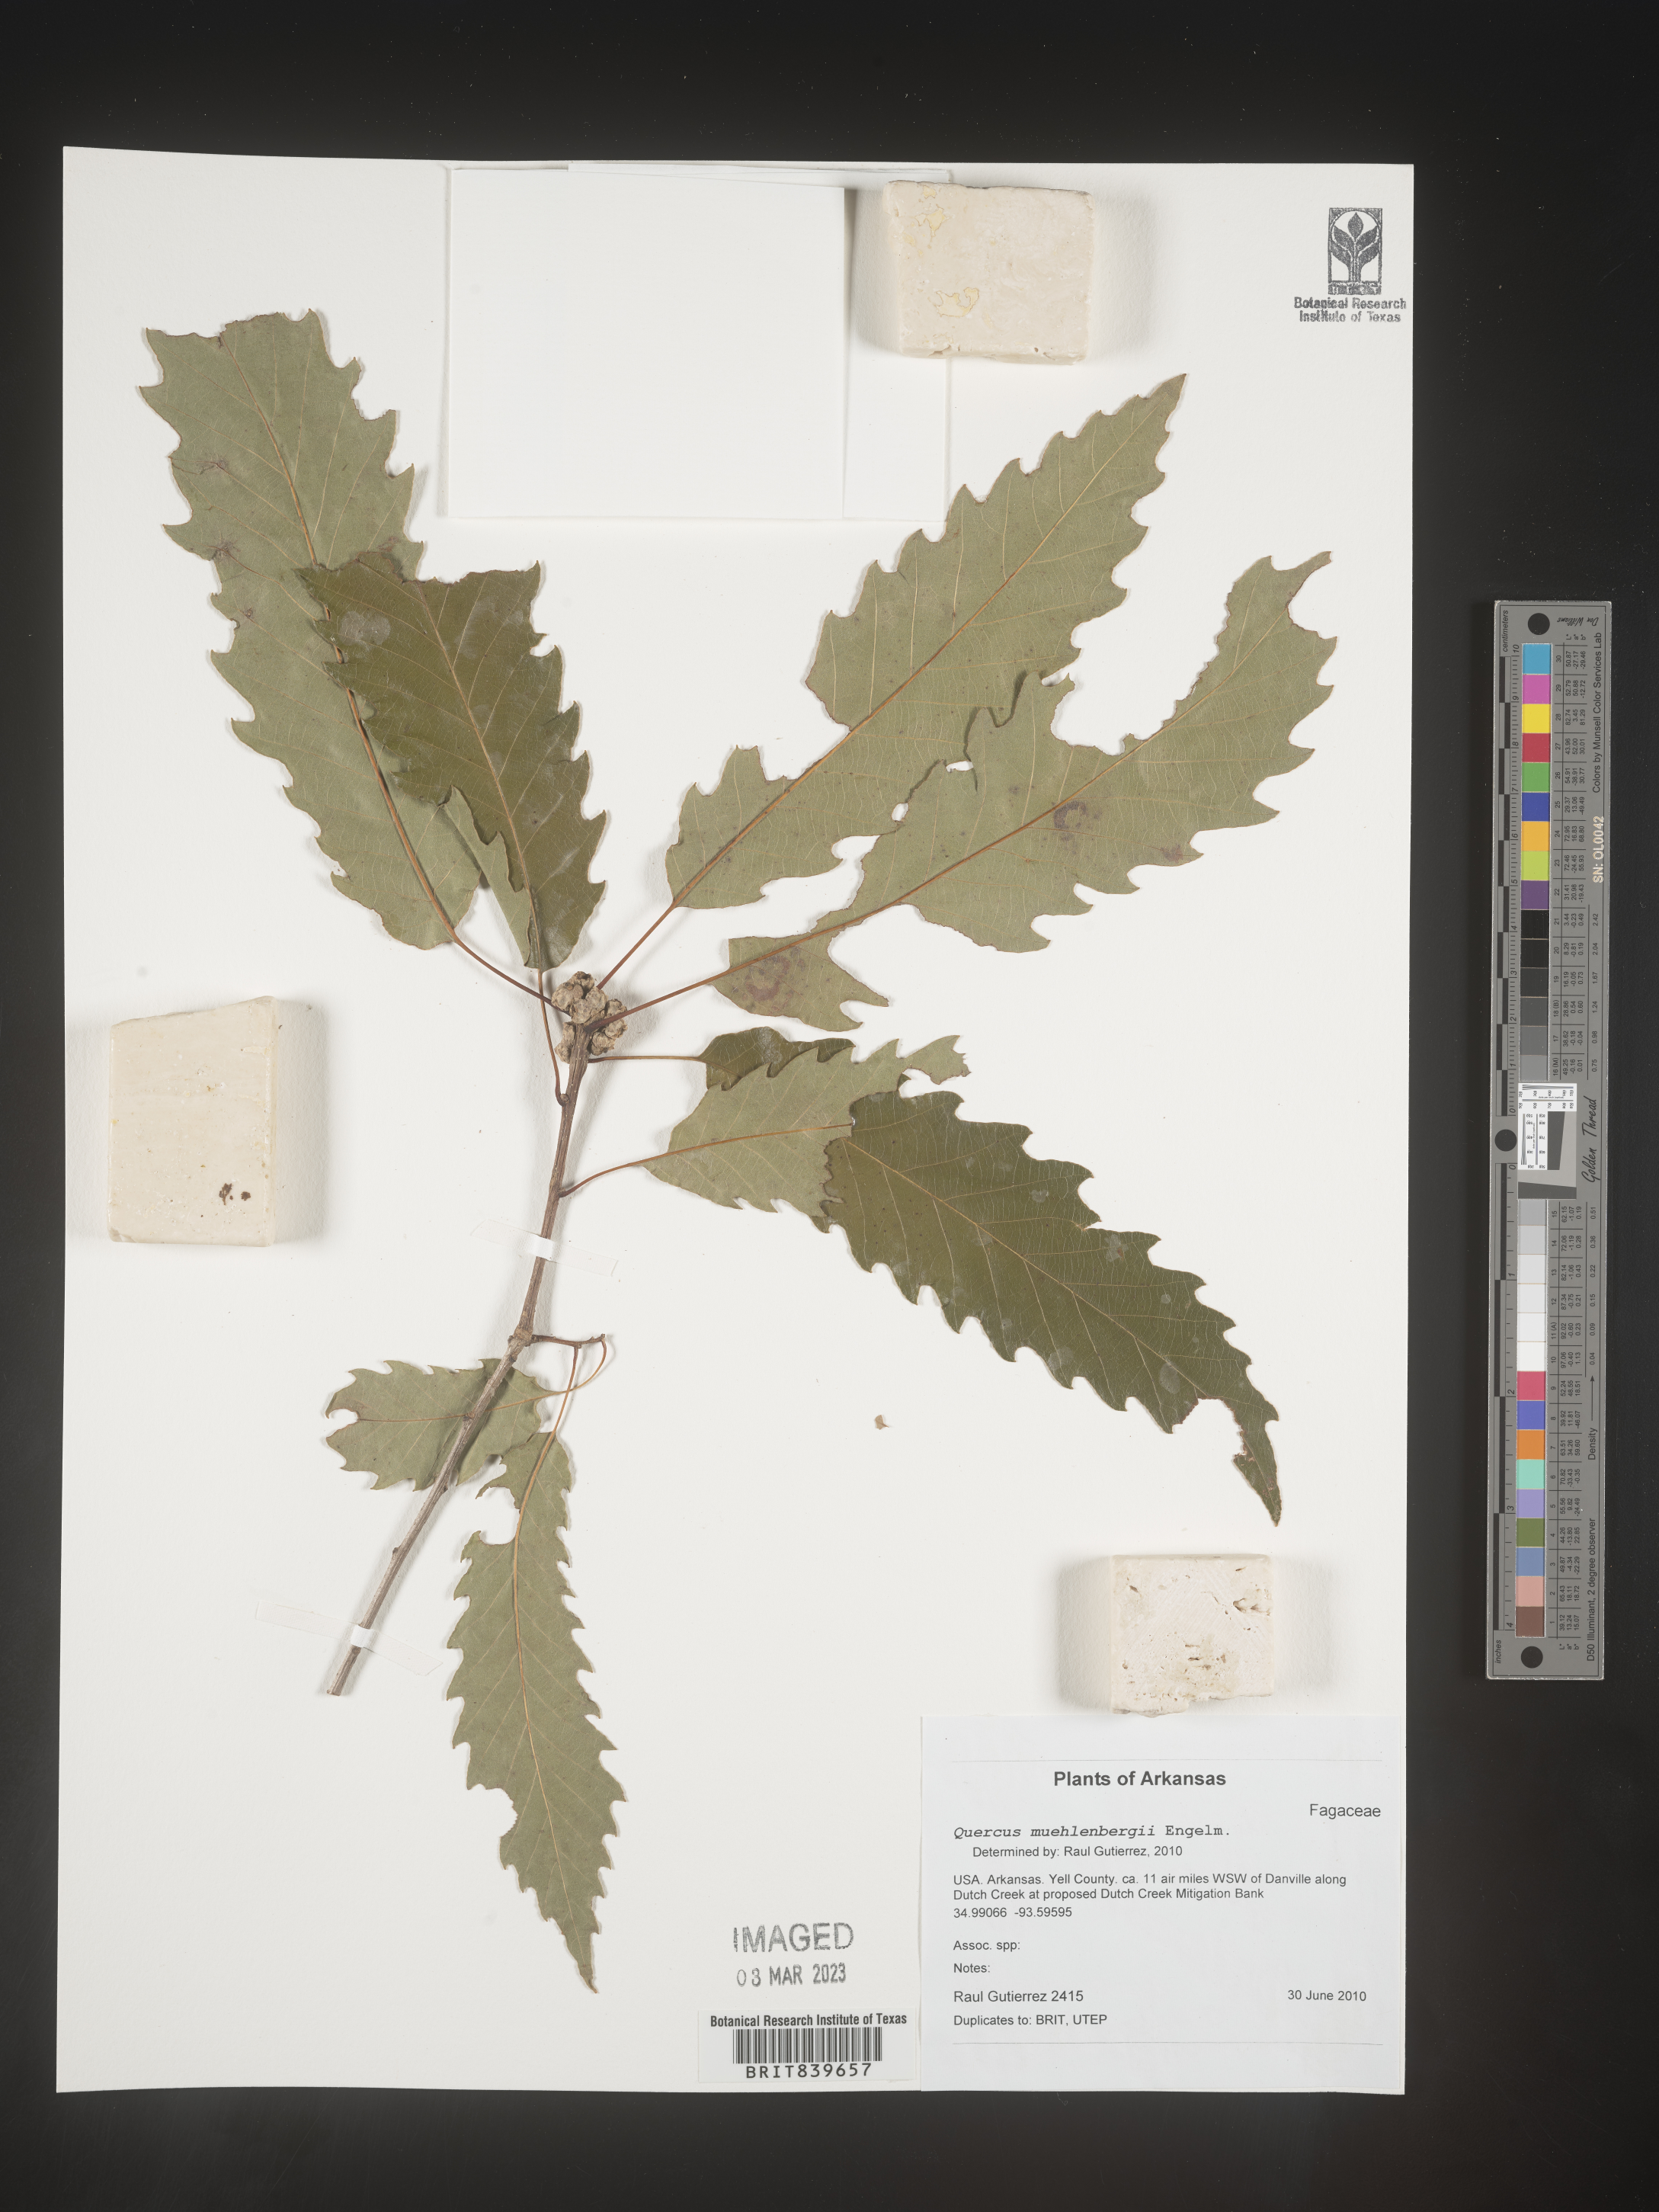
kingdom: Plantae
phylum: Tracheophyta
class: Magnoliopsida
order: Fagales
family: Fagaceae
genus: Quercus
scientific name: Quercus muehlenbergii
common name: Chinkapin oak
